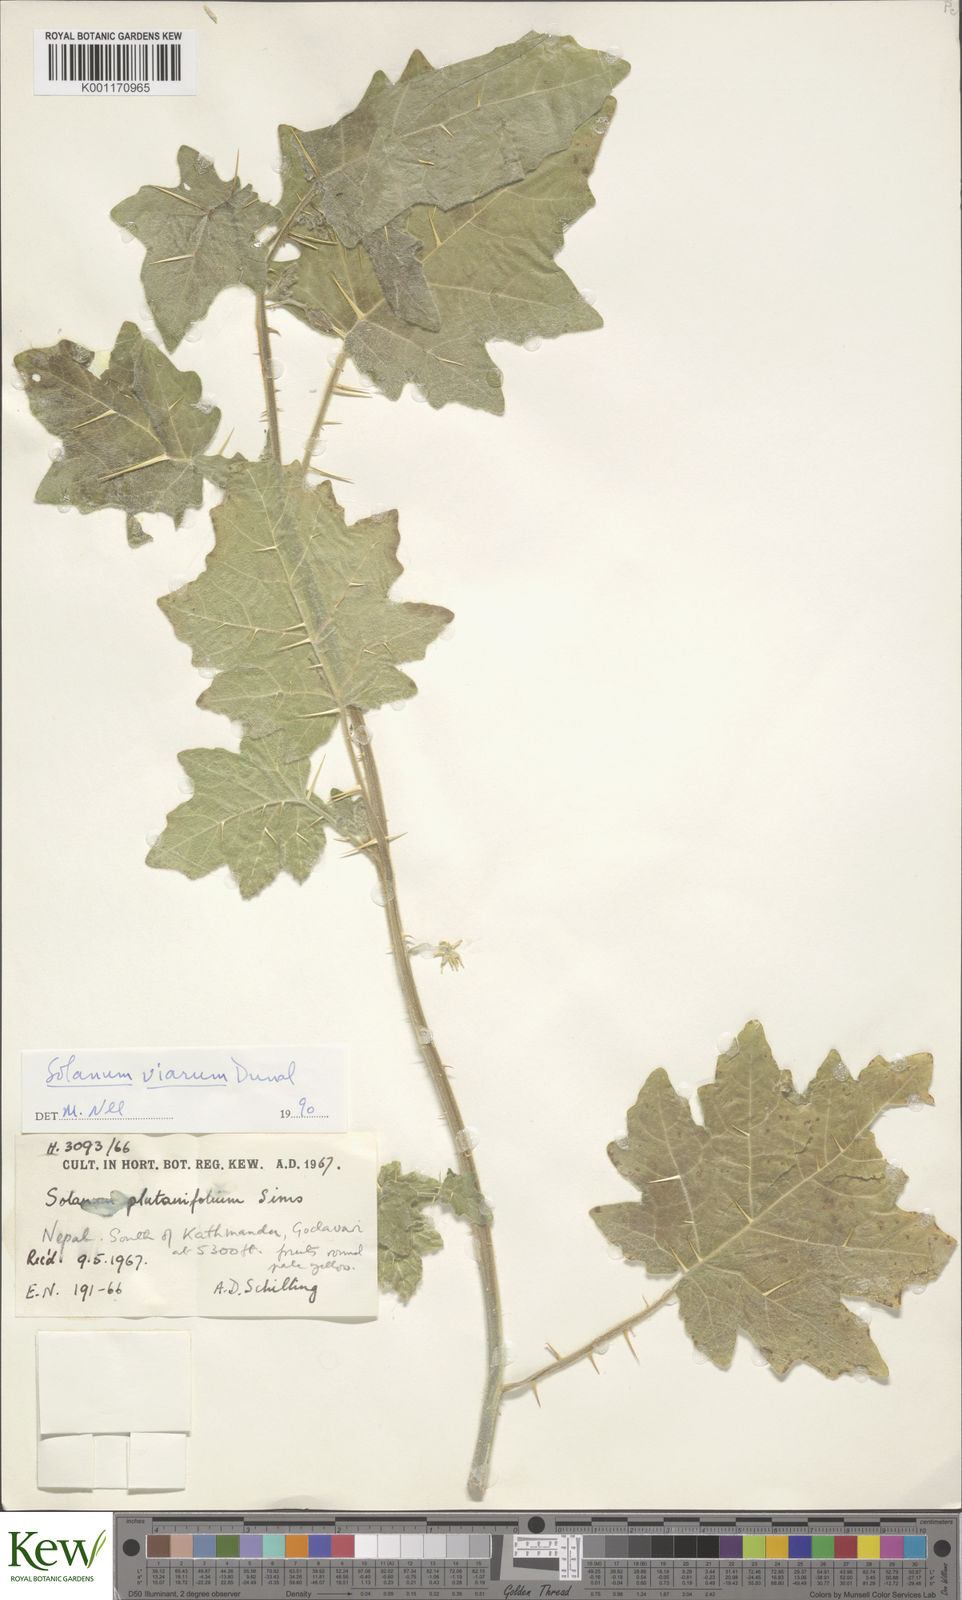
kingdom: Plantae
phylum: Tracheophyta
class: Magnoliopsida
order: Solanales
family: Solanaceae
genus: Solanum
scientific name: Solanum viarum
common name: Tropical soda apple
